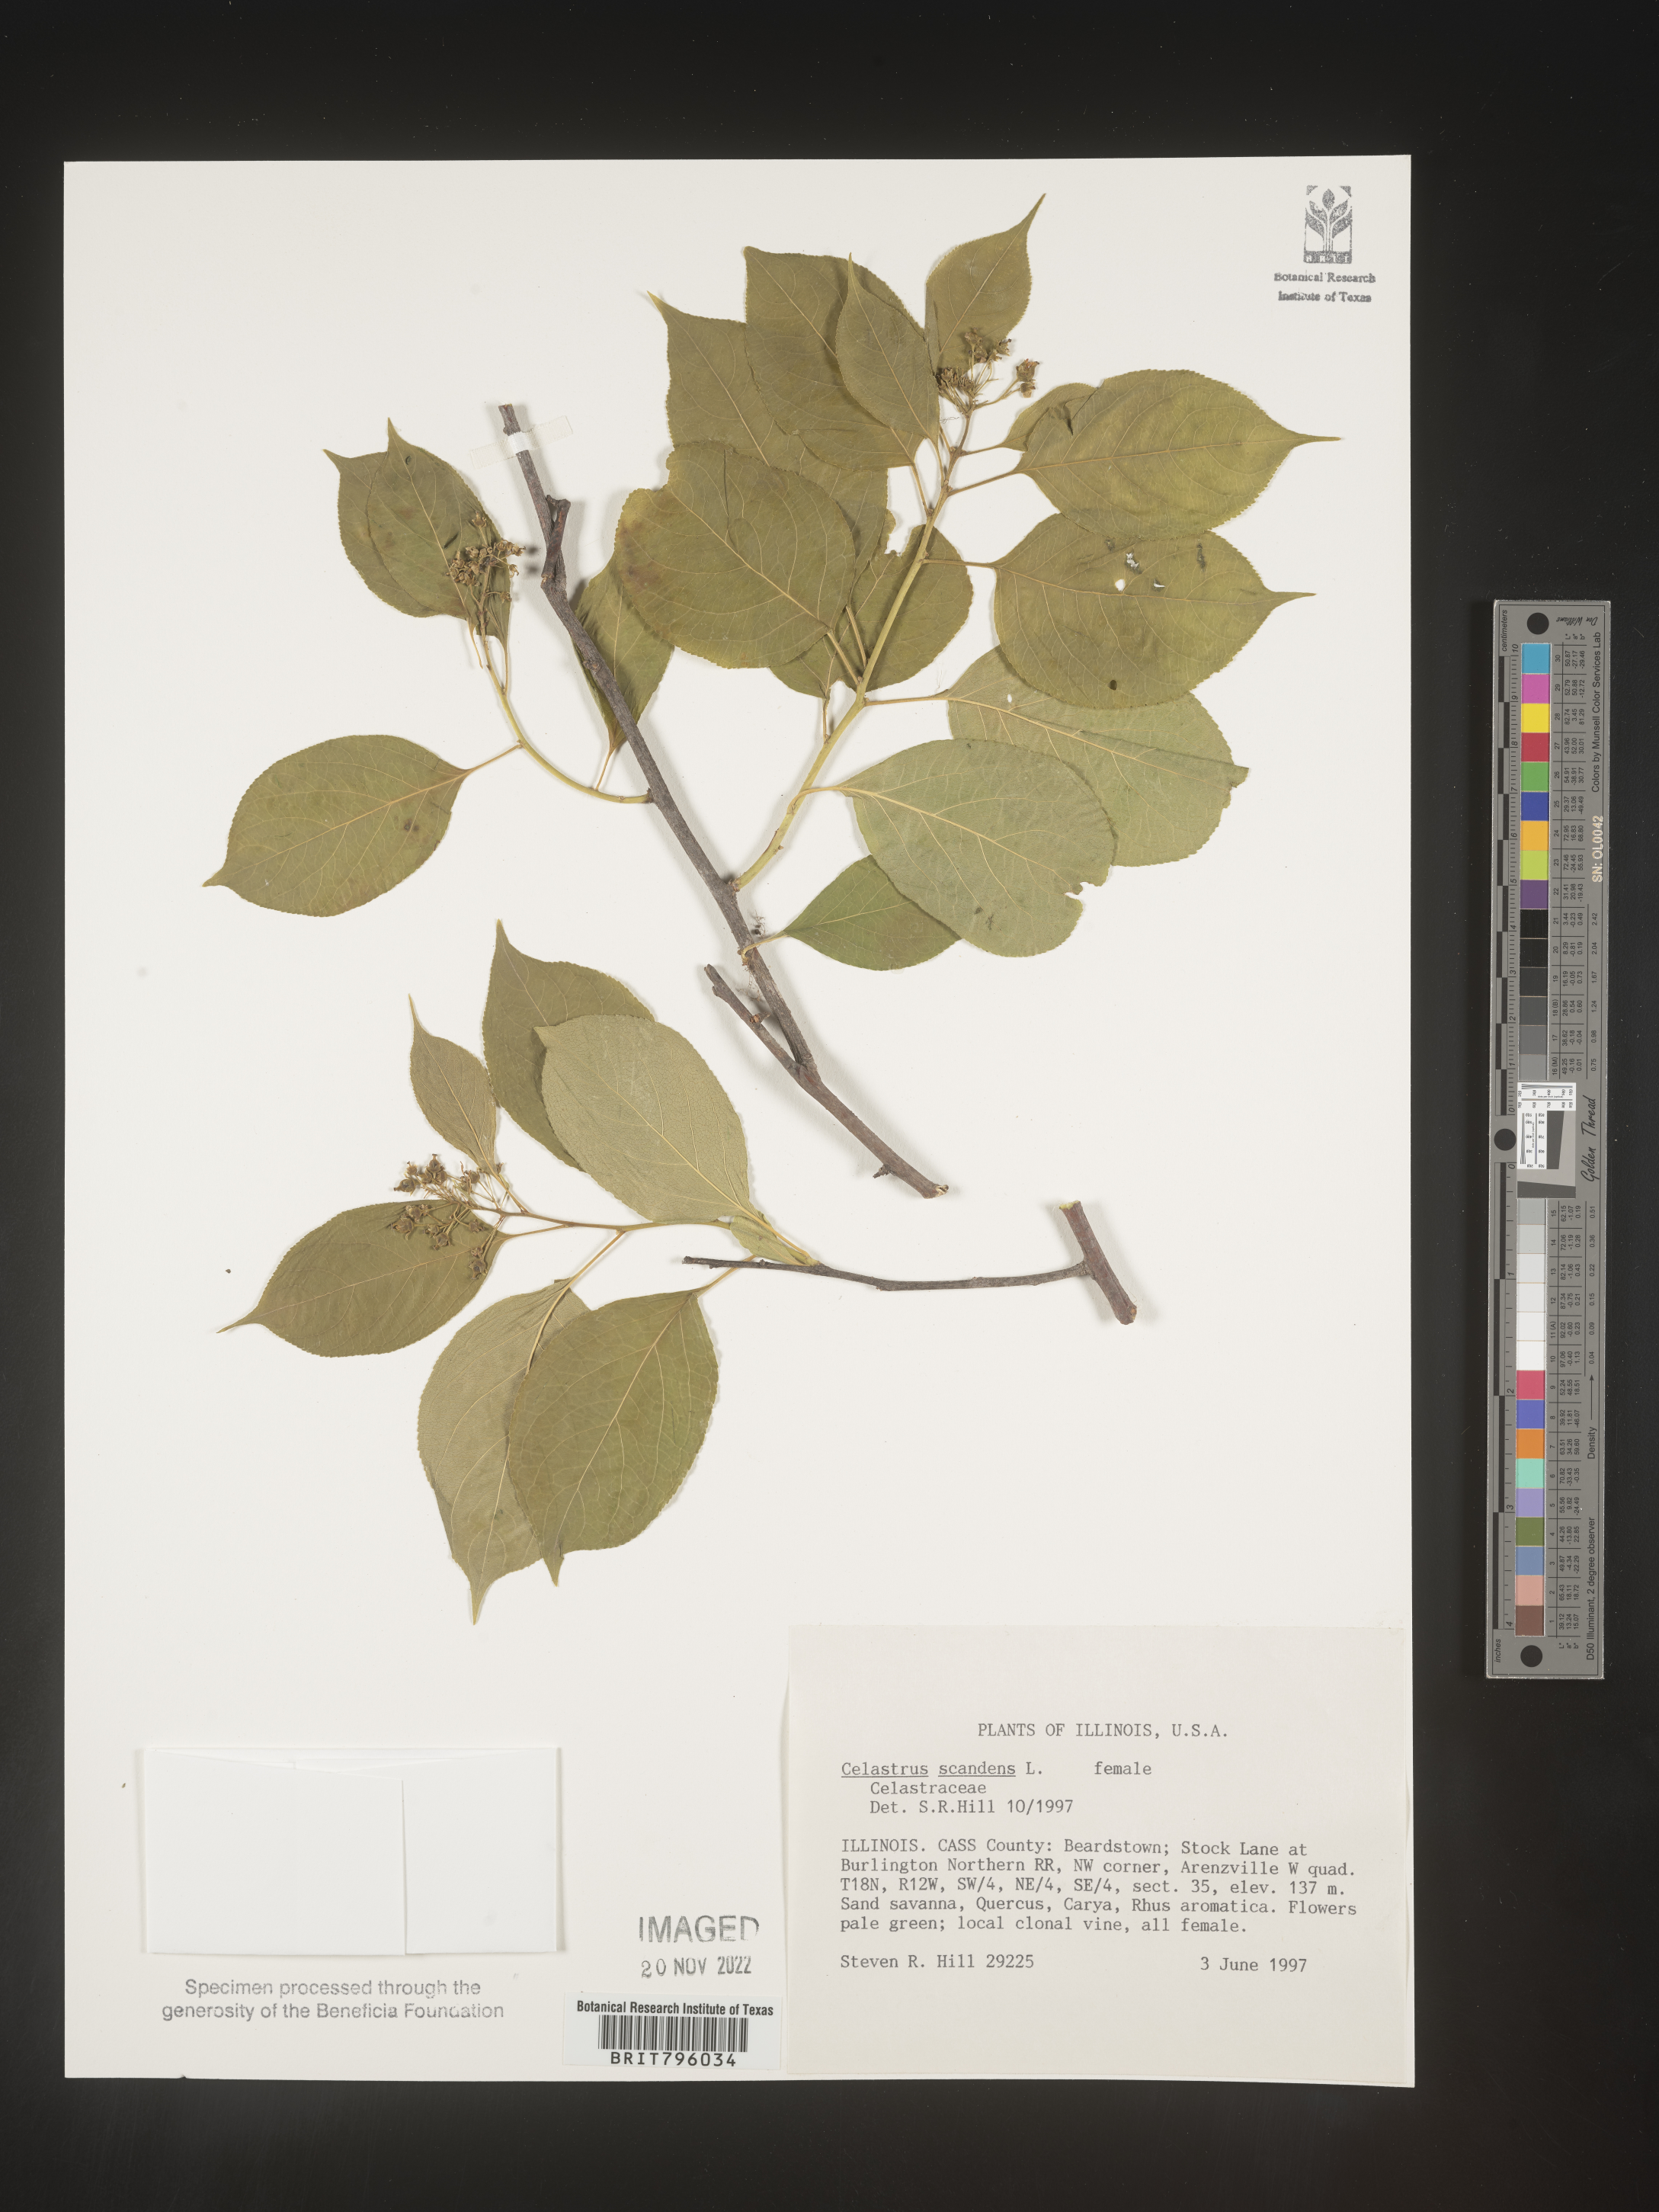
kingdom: Plantae
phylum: Tracheophyta
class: Magnoliopsida
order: Celastrales
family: Celastraceae
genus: Celastrus
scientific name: Celastrus scandens
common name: American bittersweet
